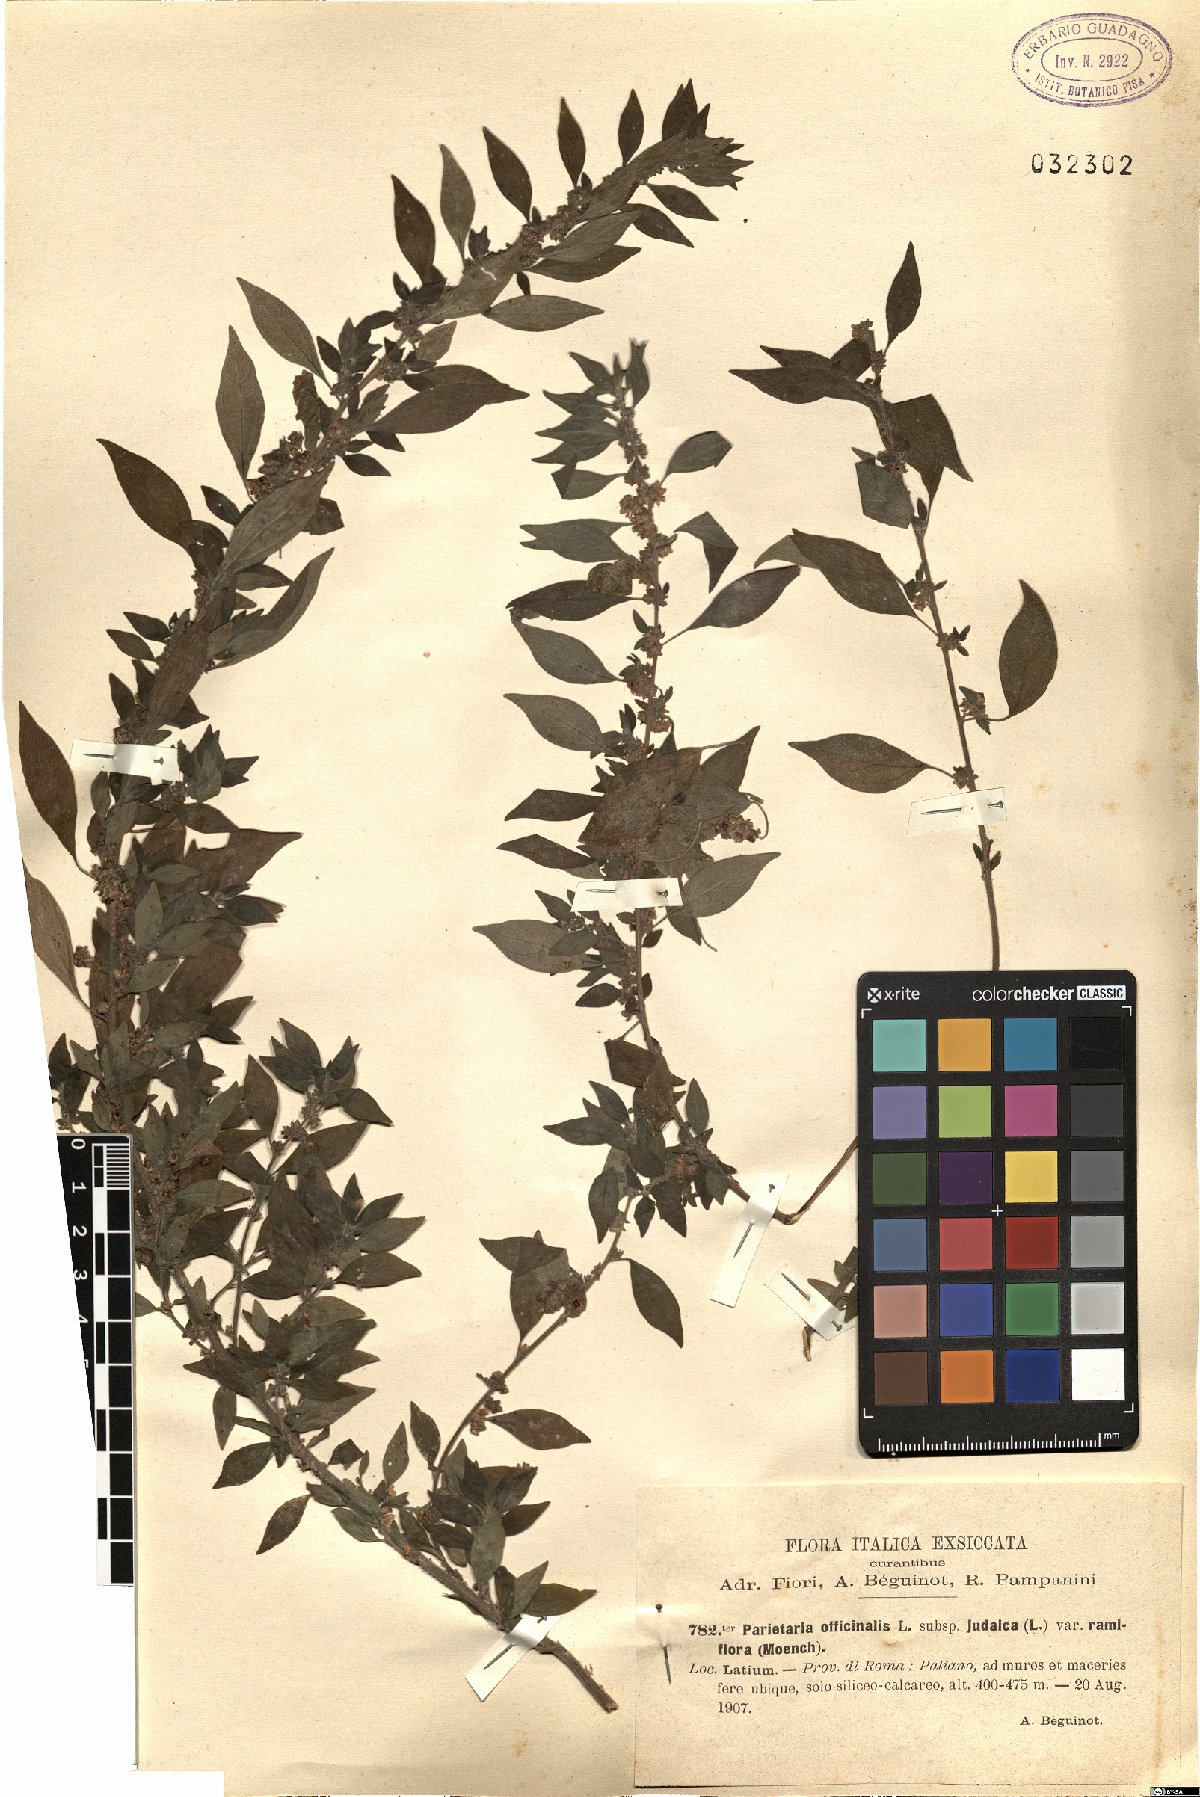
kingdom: Plantae
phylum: Tracheophyta
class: Magnoliopsida
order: Rosales
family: Urticaceae
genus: Parietaria
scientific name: Parietaria judaica
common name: Pellitory-of-the-wall
